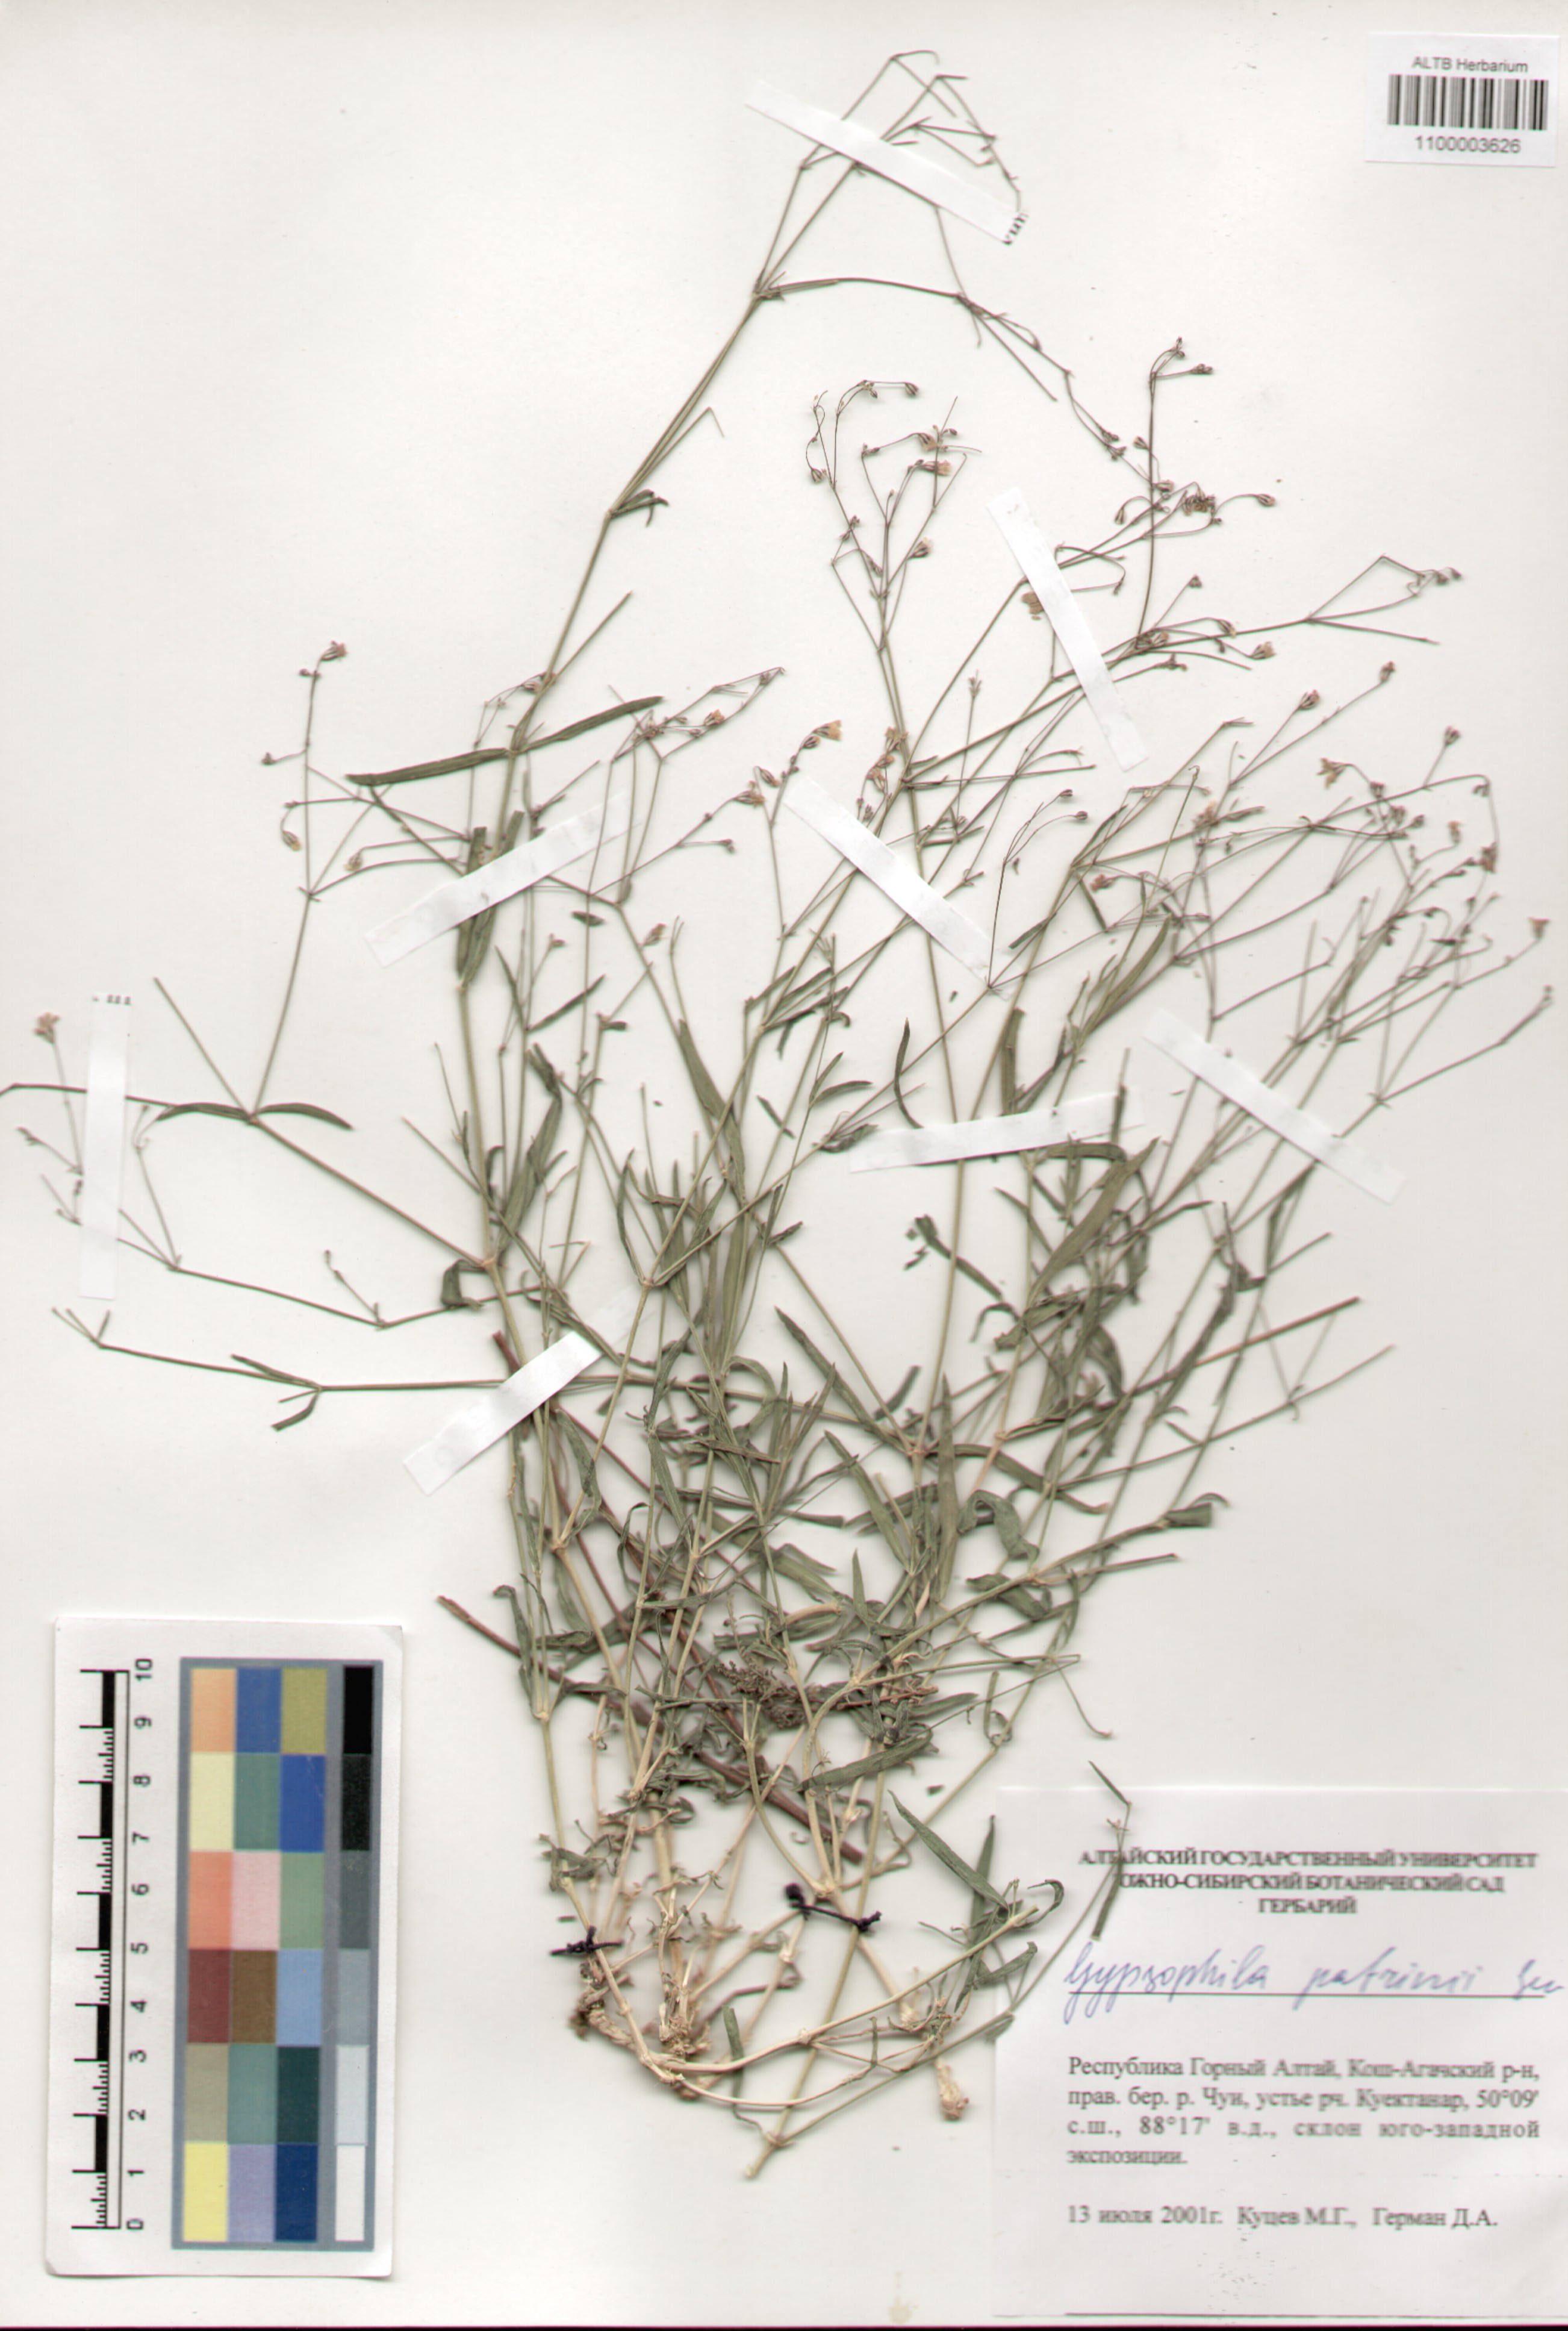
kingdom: Plantae
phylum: Tracheophyta
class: Magnoliopsida
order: Caryophyllales
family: Caryophyllaceae
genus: Gypsophila
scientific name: Gypsophila patrinii
